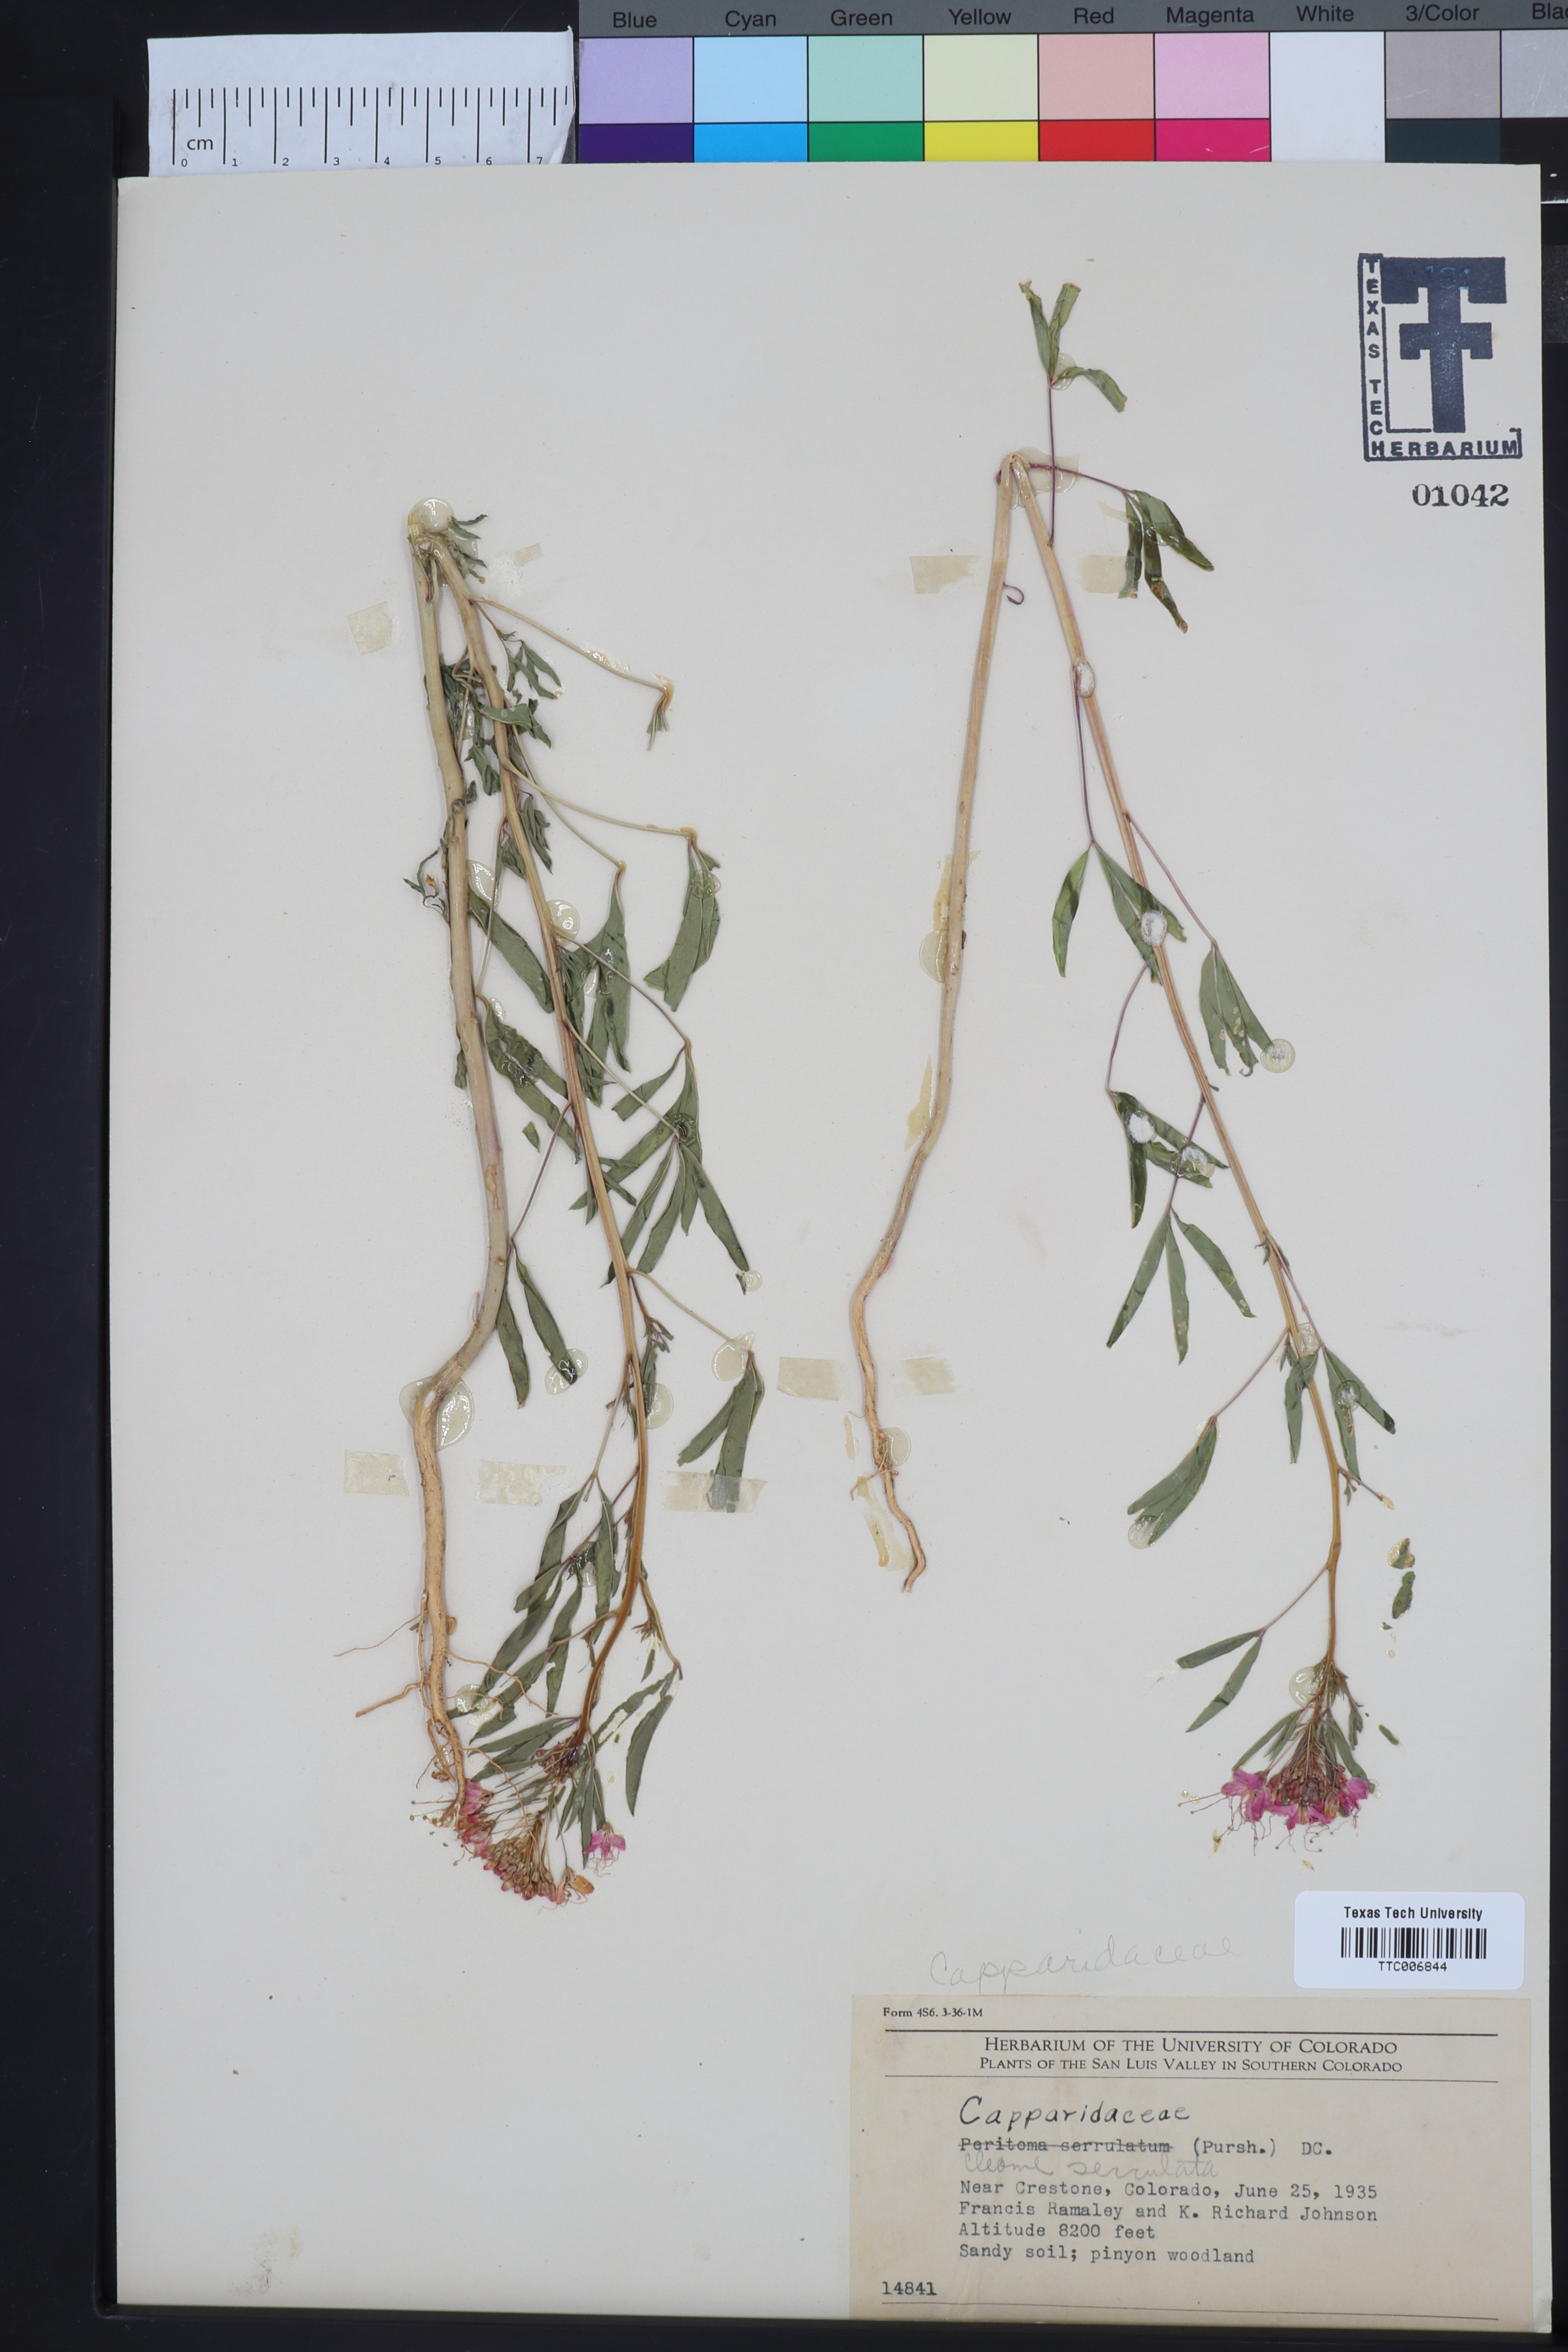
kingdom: Plantae
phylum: Tracheophyta
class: Magnoliopsida
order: Brassicales
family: Cleomaceae
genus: Cleomella
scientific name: Cleomella serrulata
